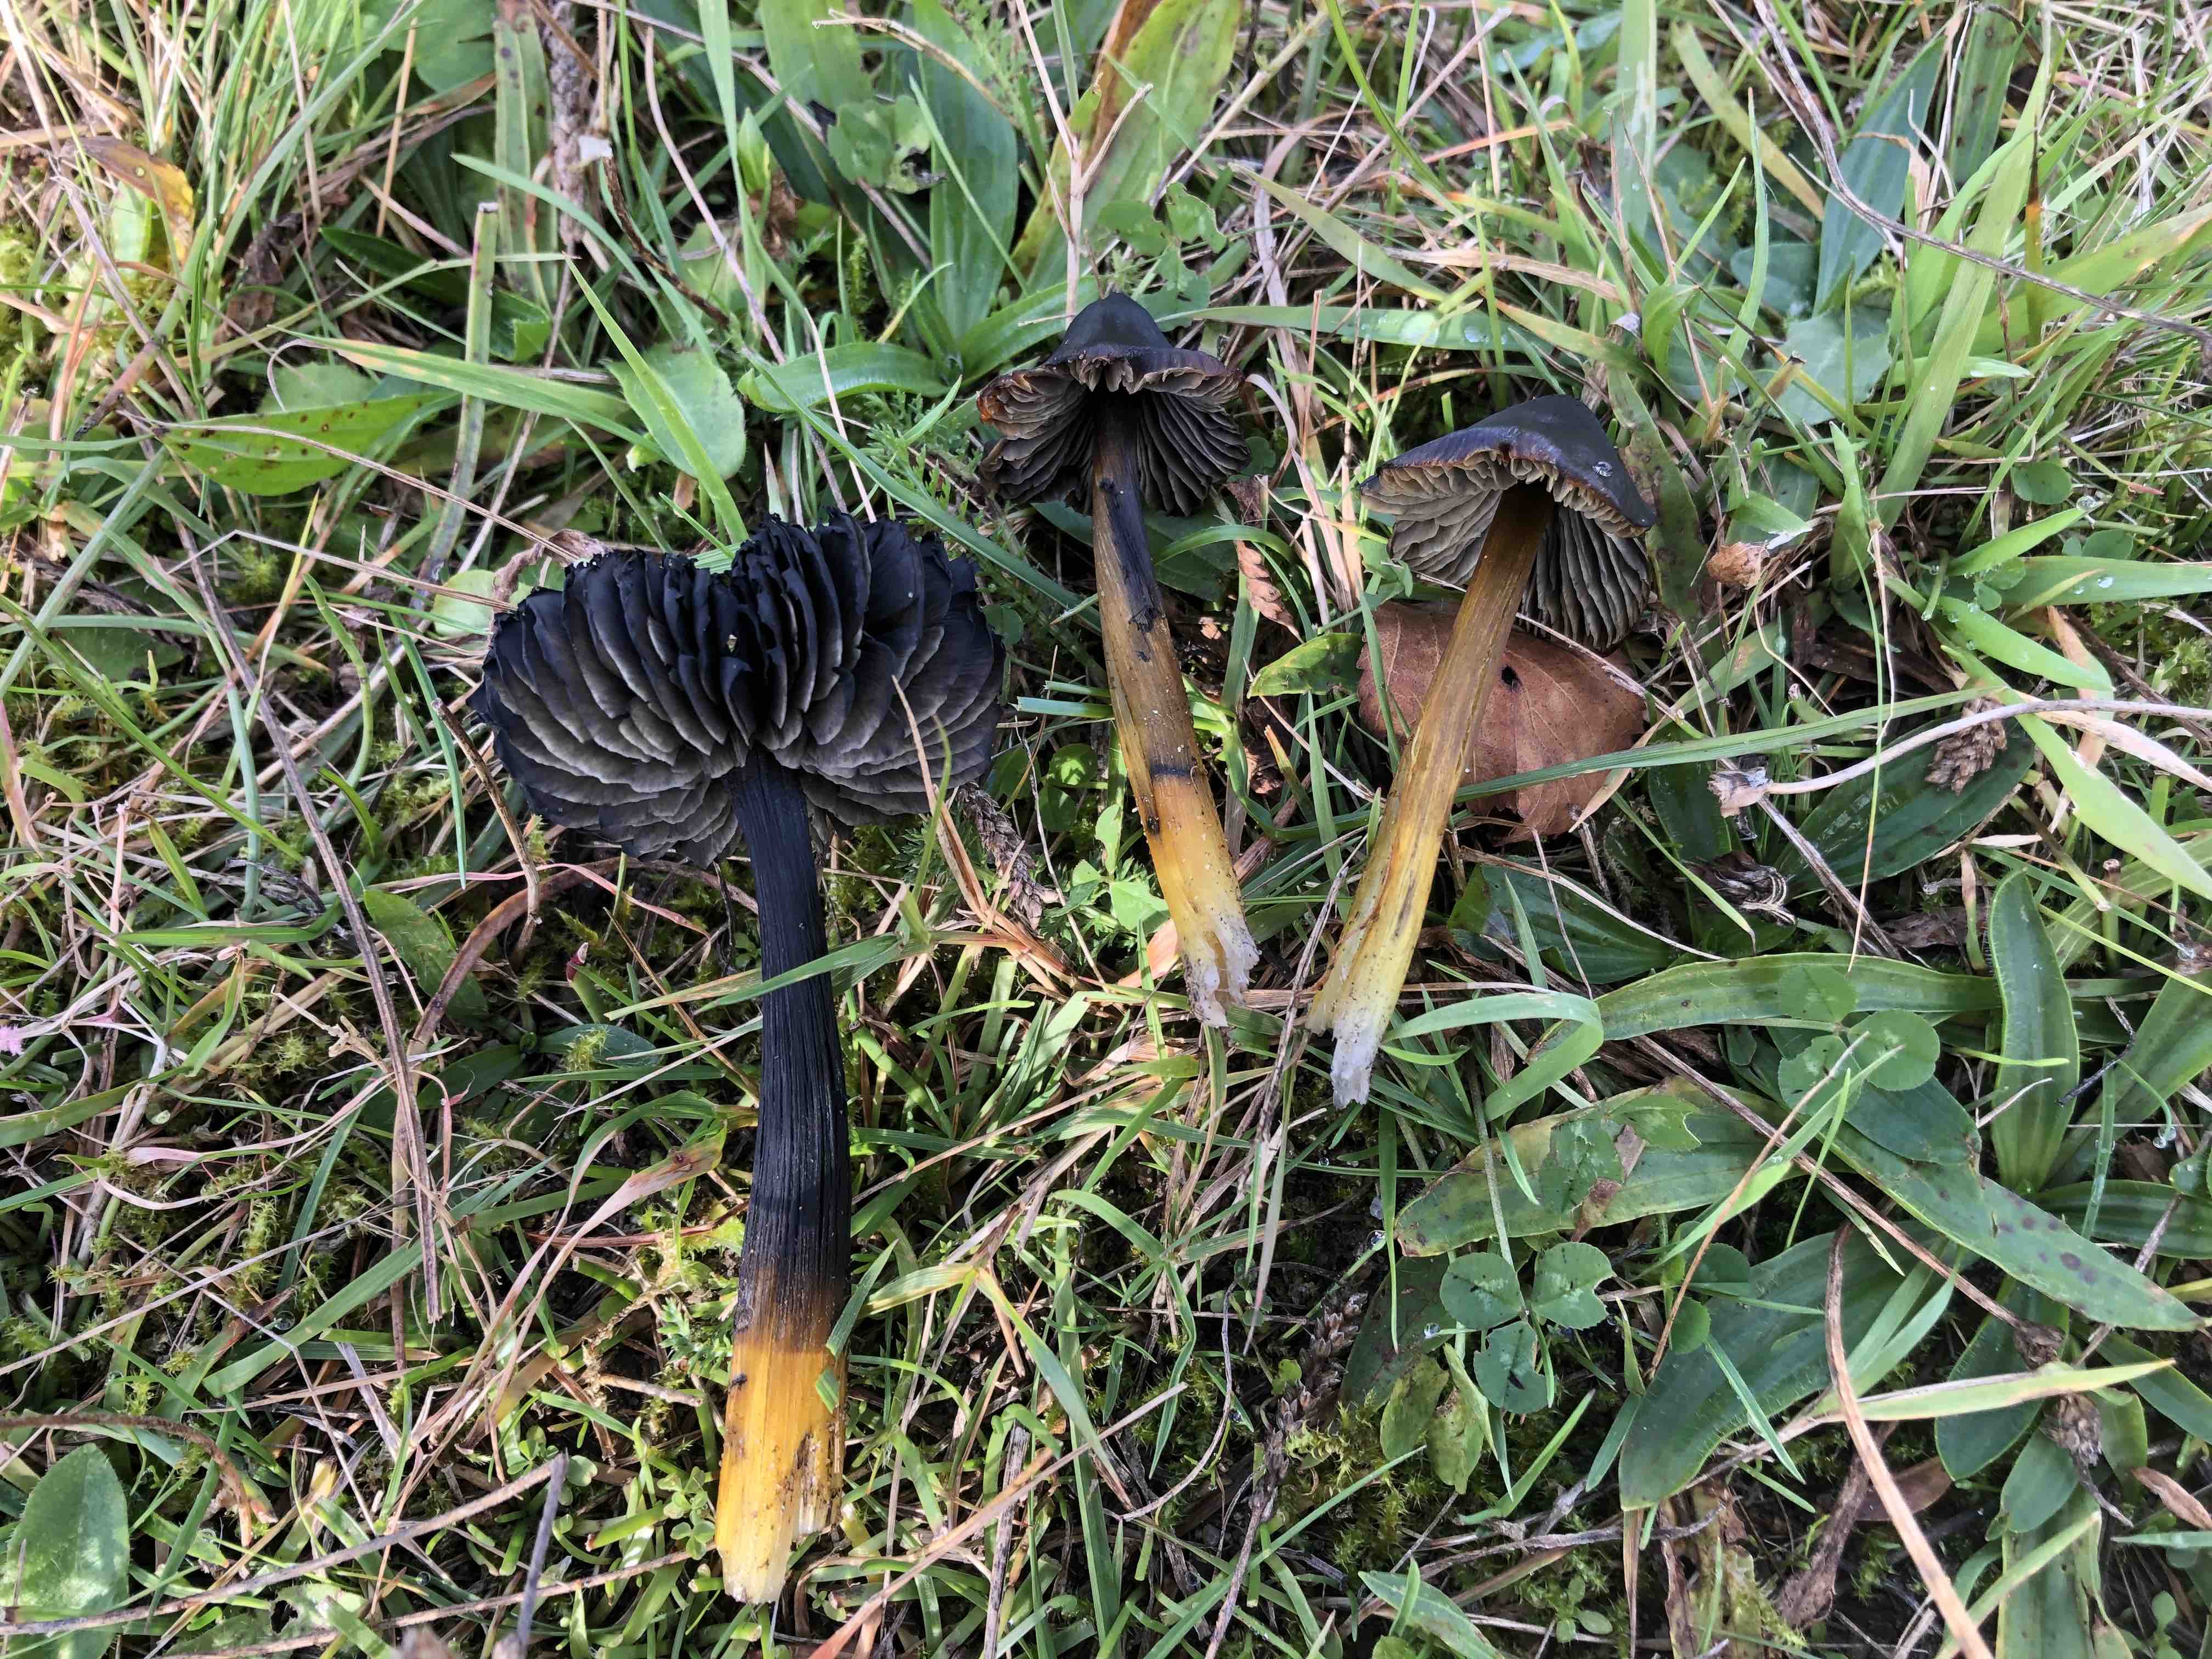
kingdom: Fungi
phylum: Basidiomycota
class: Agaricomycetes
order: Agaricales
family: Hygrophoraceae
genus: Hygrocybe
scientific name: Hygrocybe conica
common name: kegle-vokshat
